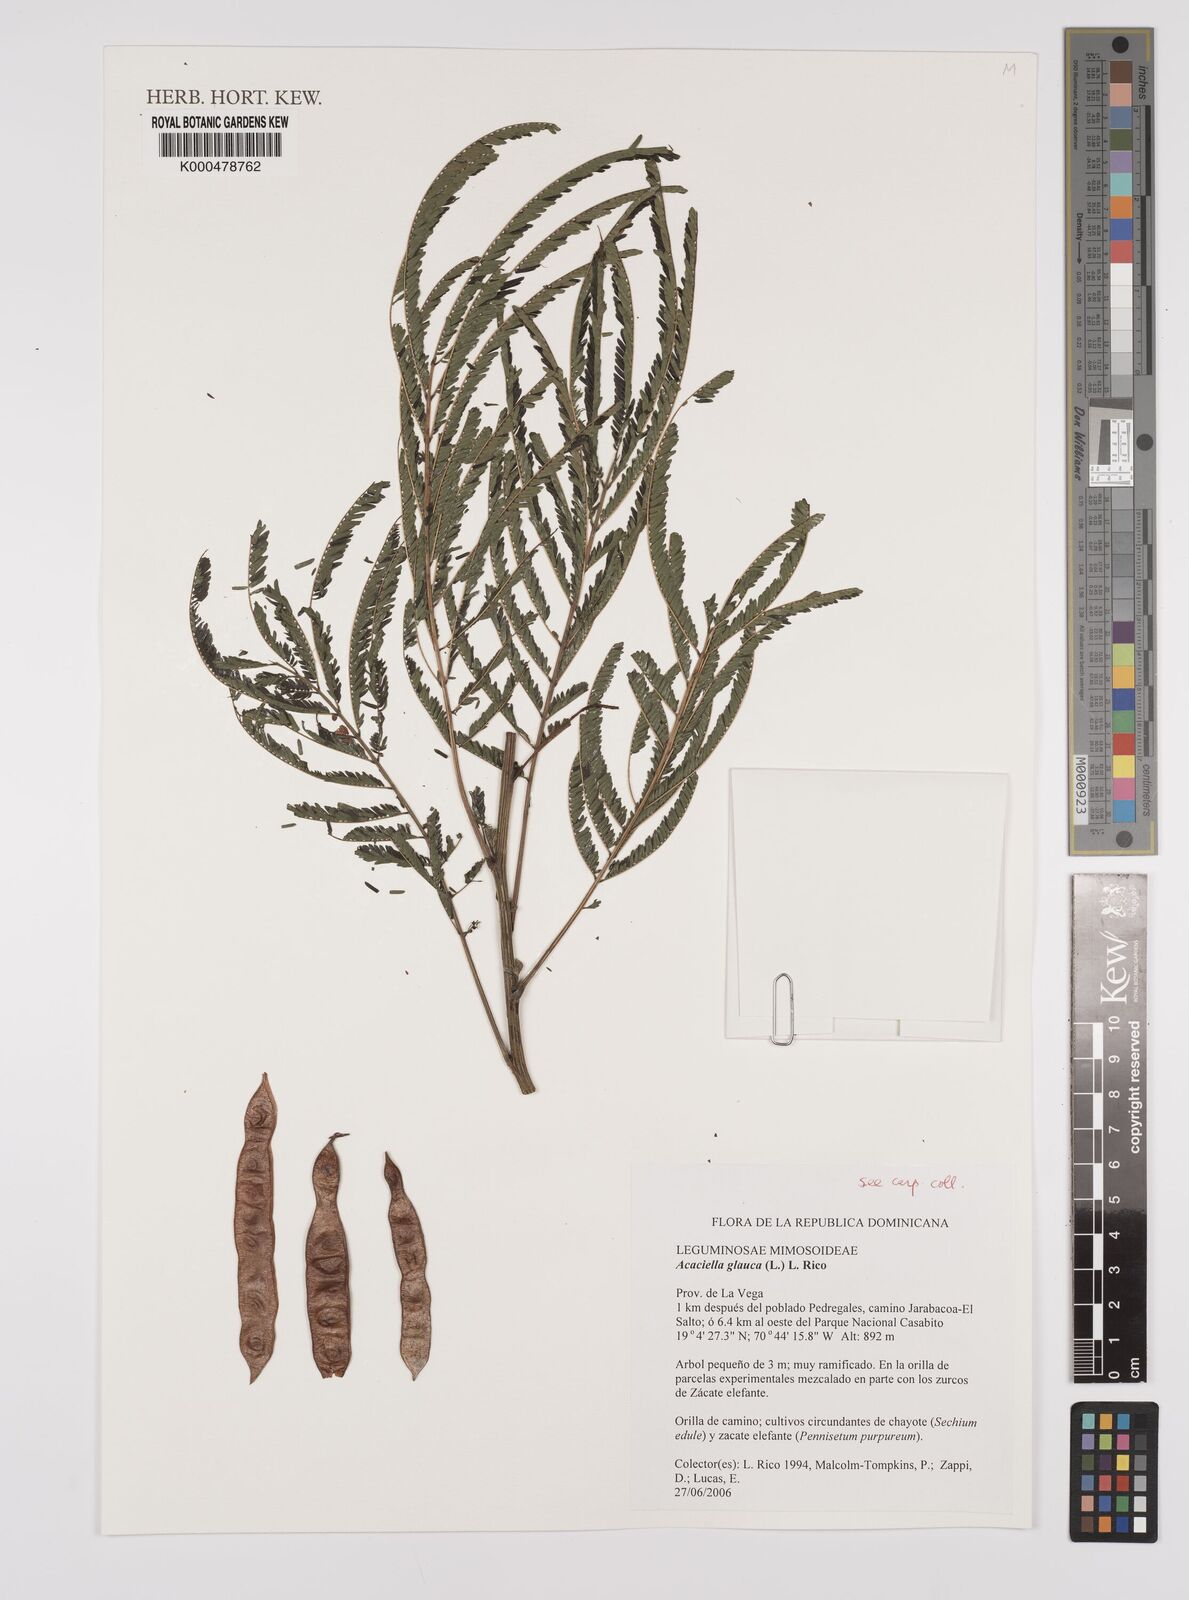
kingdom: Plantae
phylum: Tracheophyta
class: Magnoliopsida
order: Fabales
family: Fabaceae
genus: Acaciella
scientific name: Acaciella glauca
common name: Redwood
